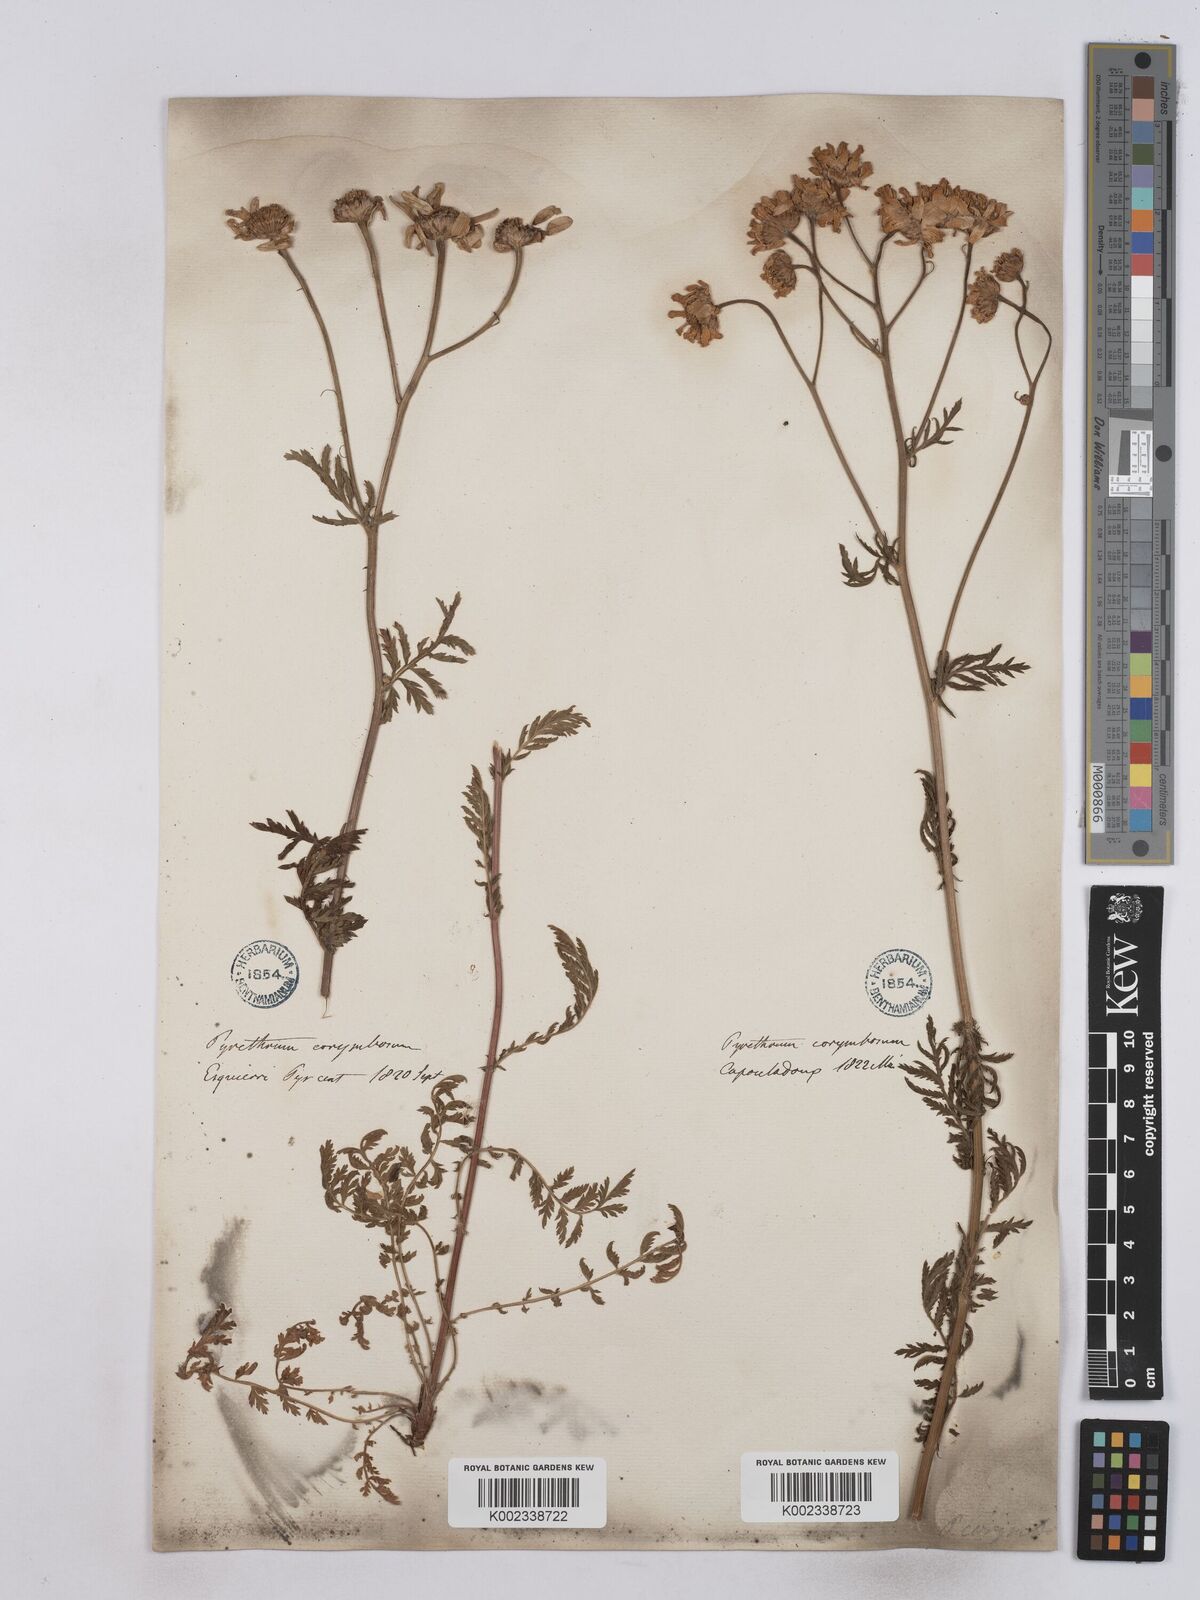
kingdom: Plantae
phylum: Tracheophyta
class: Magnoliopsida
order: Asterales
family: Asteraceae
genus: Tanacetum
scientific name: Tanacetum corymbosum
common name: Scentless feverfew
